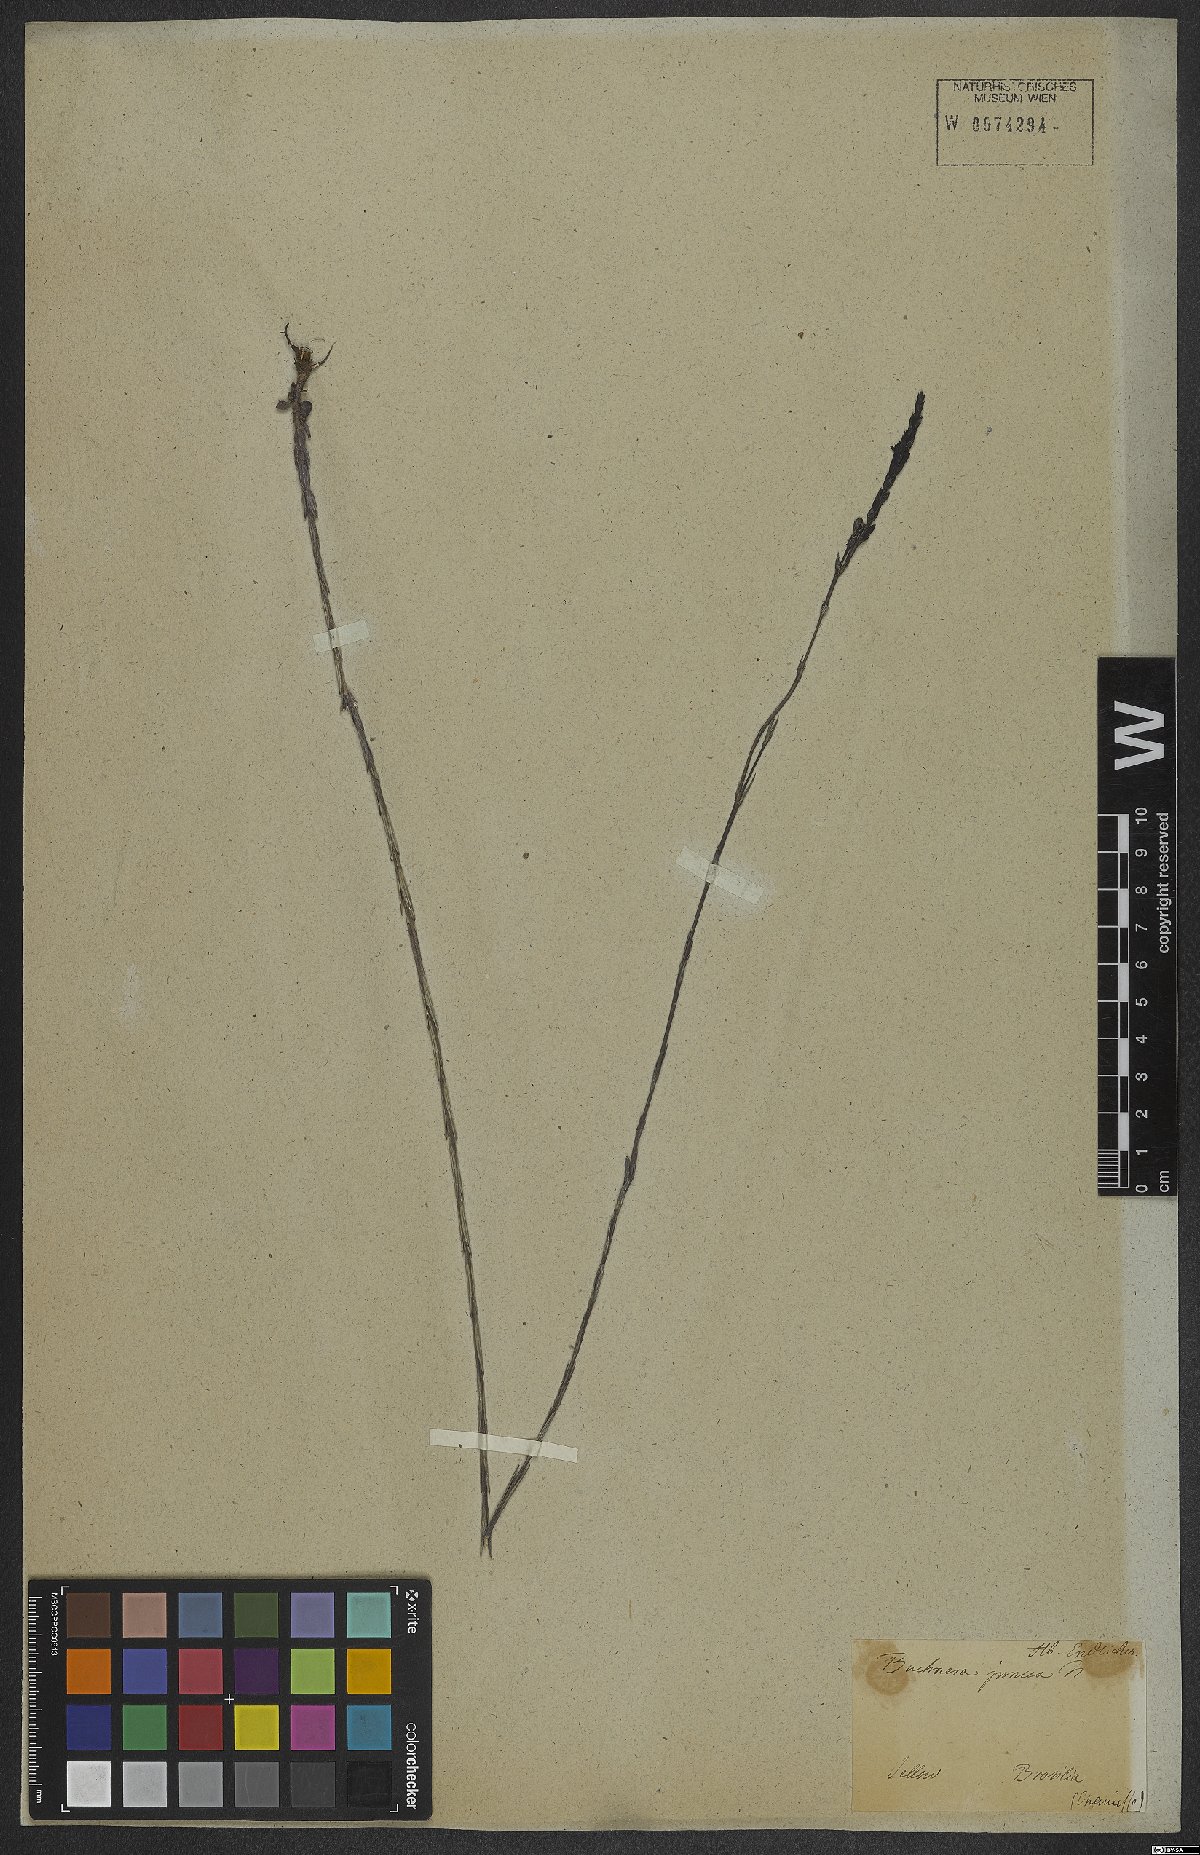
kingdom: Plantae
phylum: Tracheophyta
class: Magnoliopsida
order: Lamiales
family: Orobanchaceae
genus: Buchnera
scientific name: Buchnera juncea
